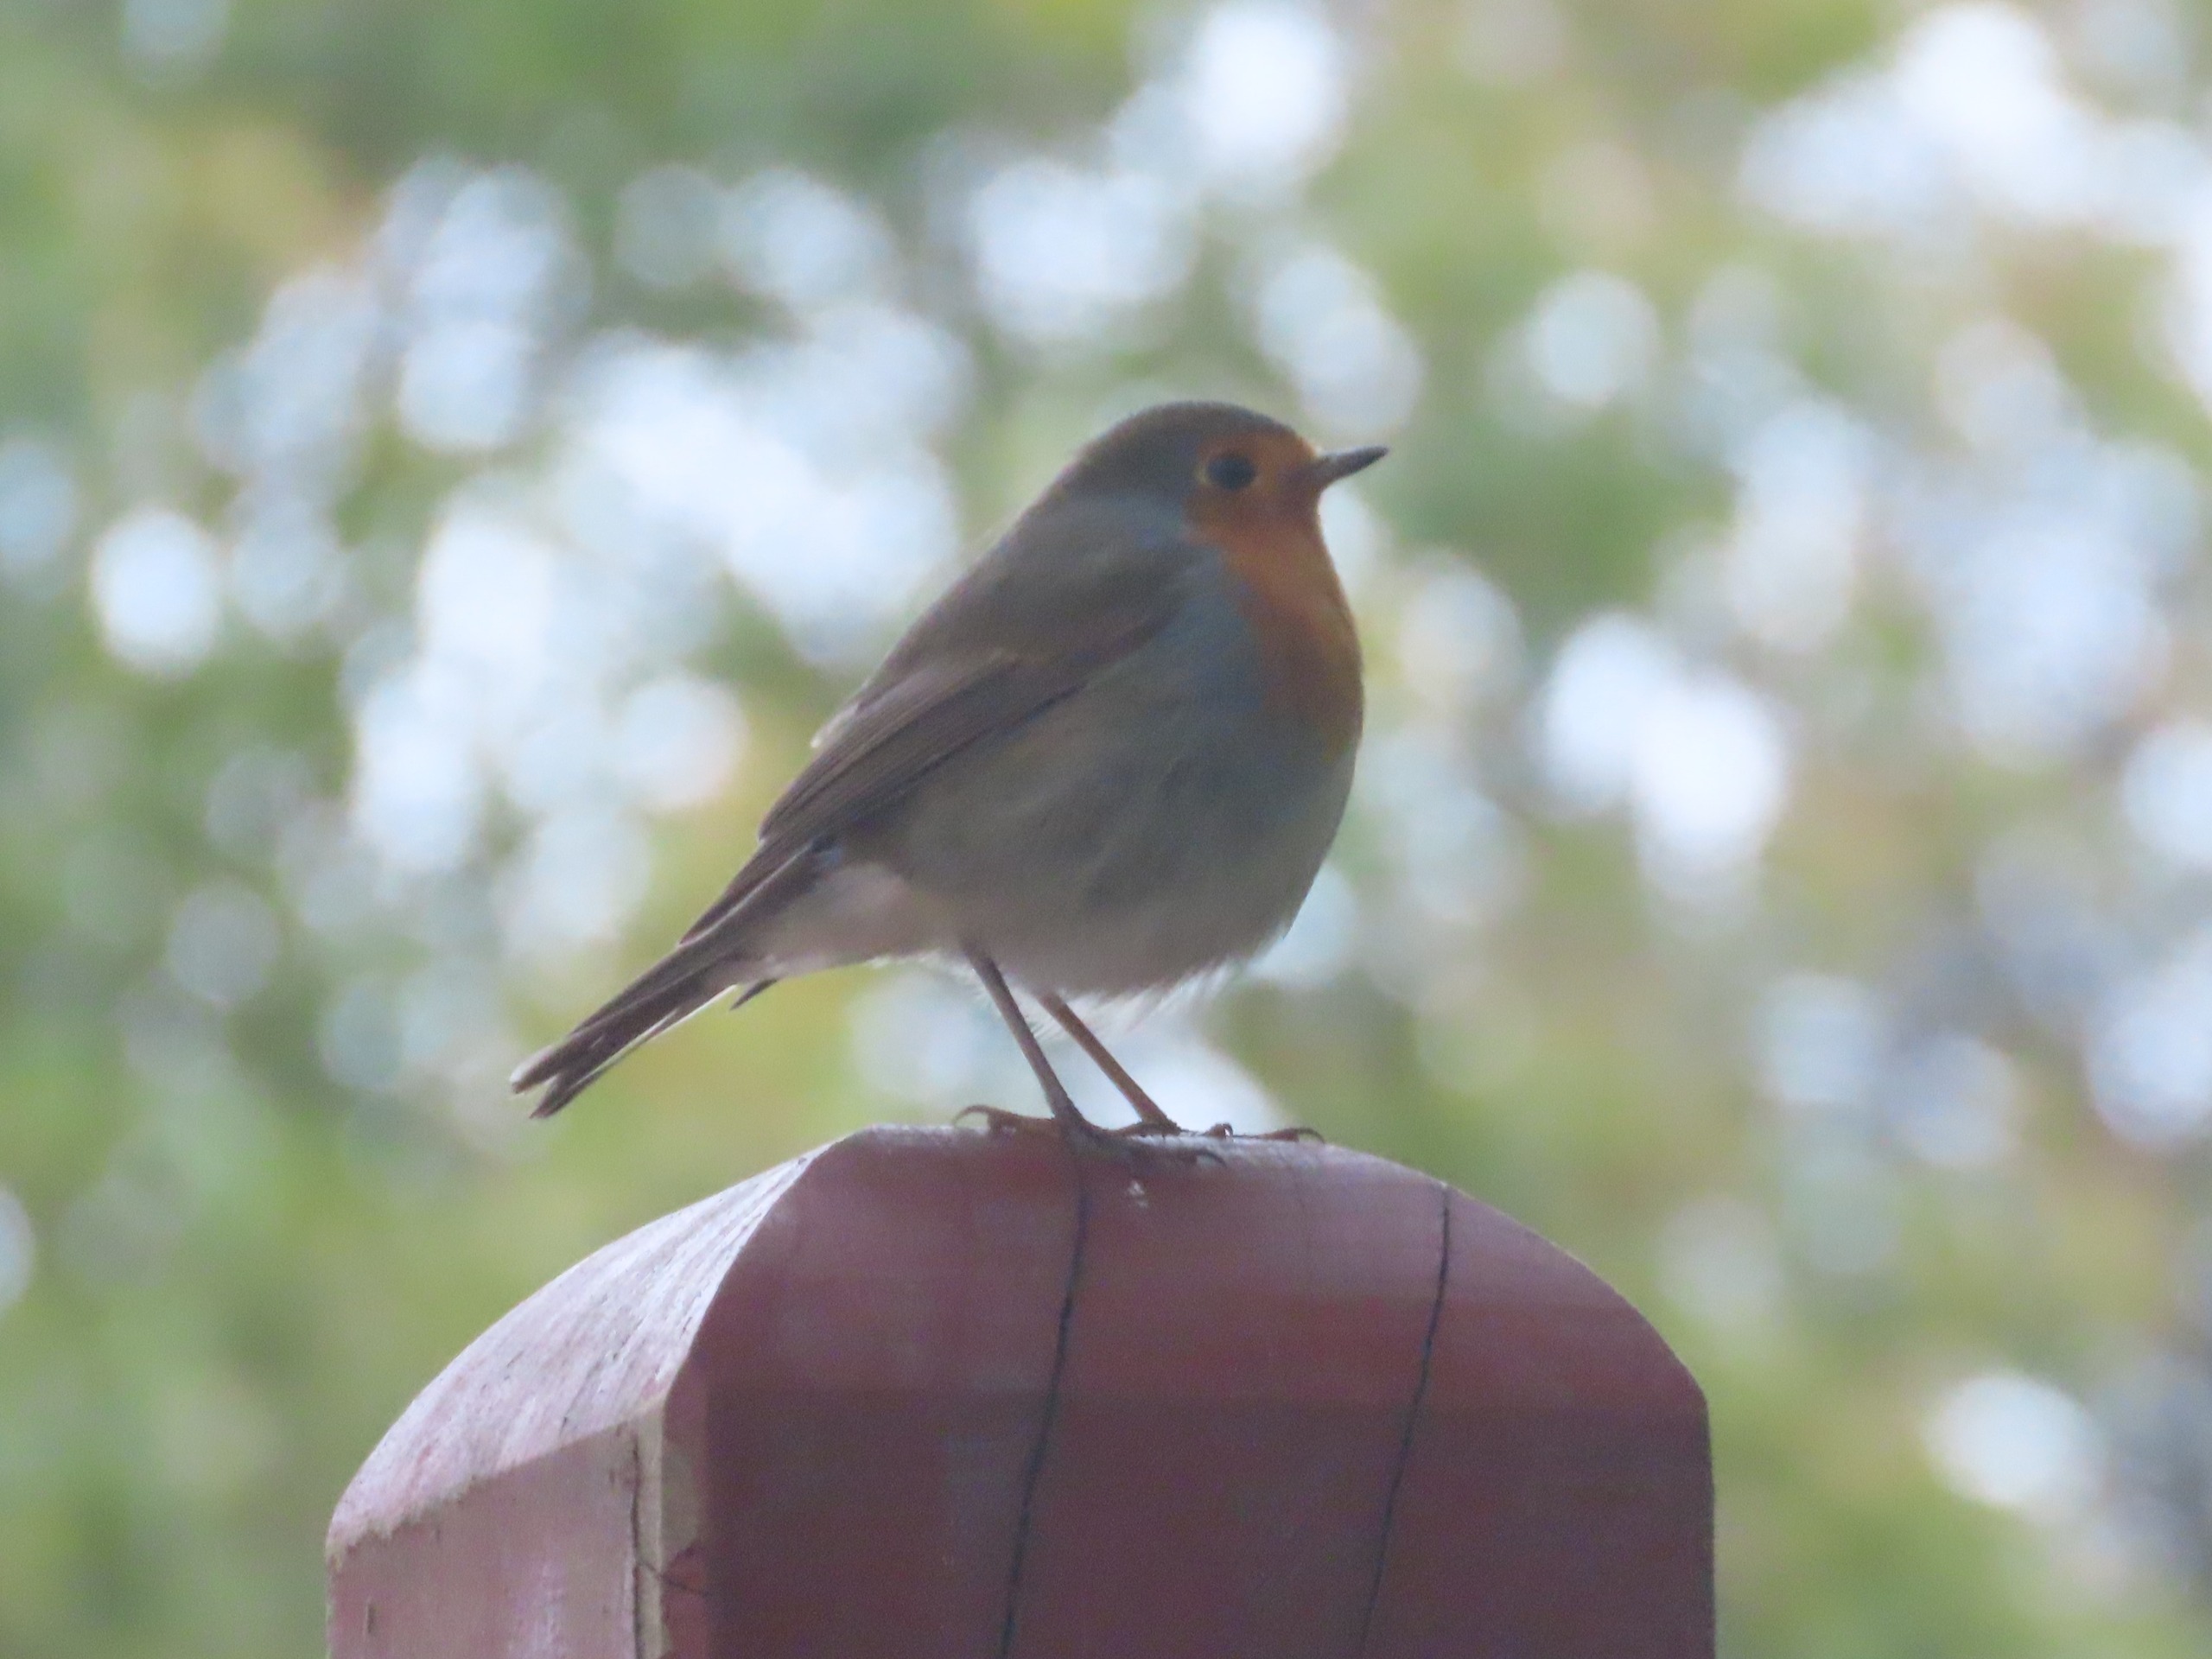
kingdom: Animalia
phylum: Chordata
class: Aves
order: Passeriformes
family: Muscicapidae
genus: Erithacus
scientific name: Erithacus rubecula
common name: Rødhals/rødkælk
